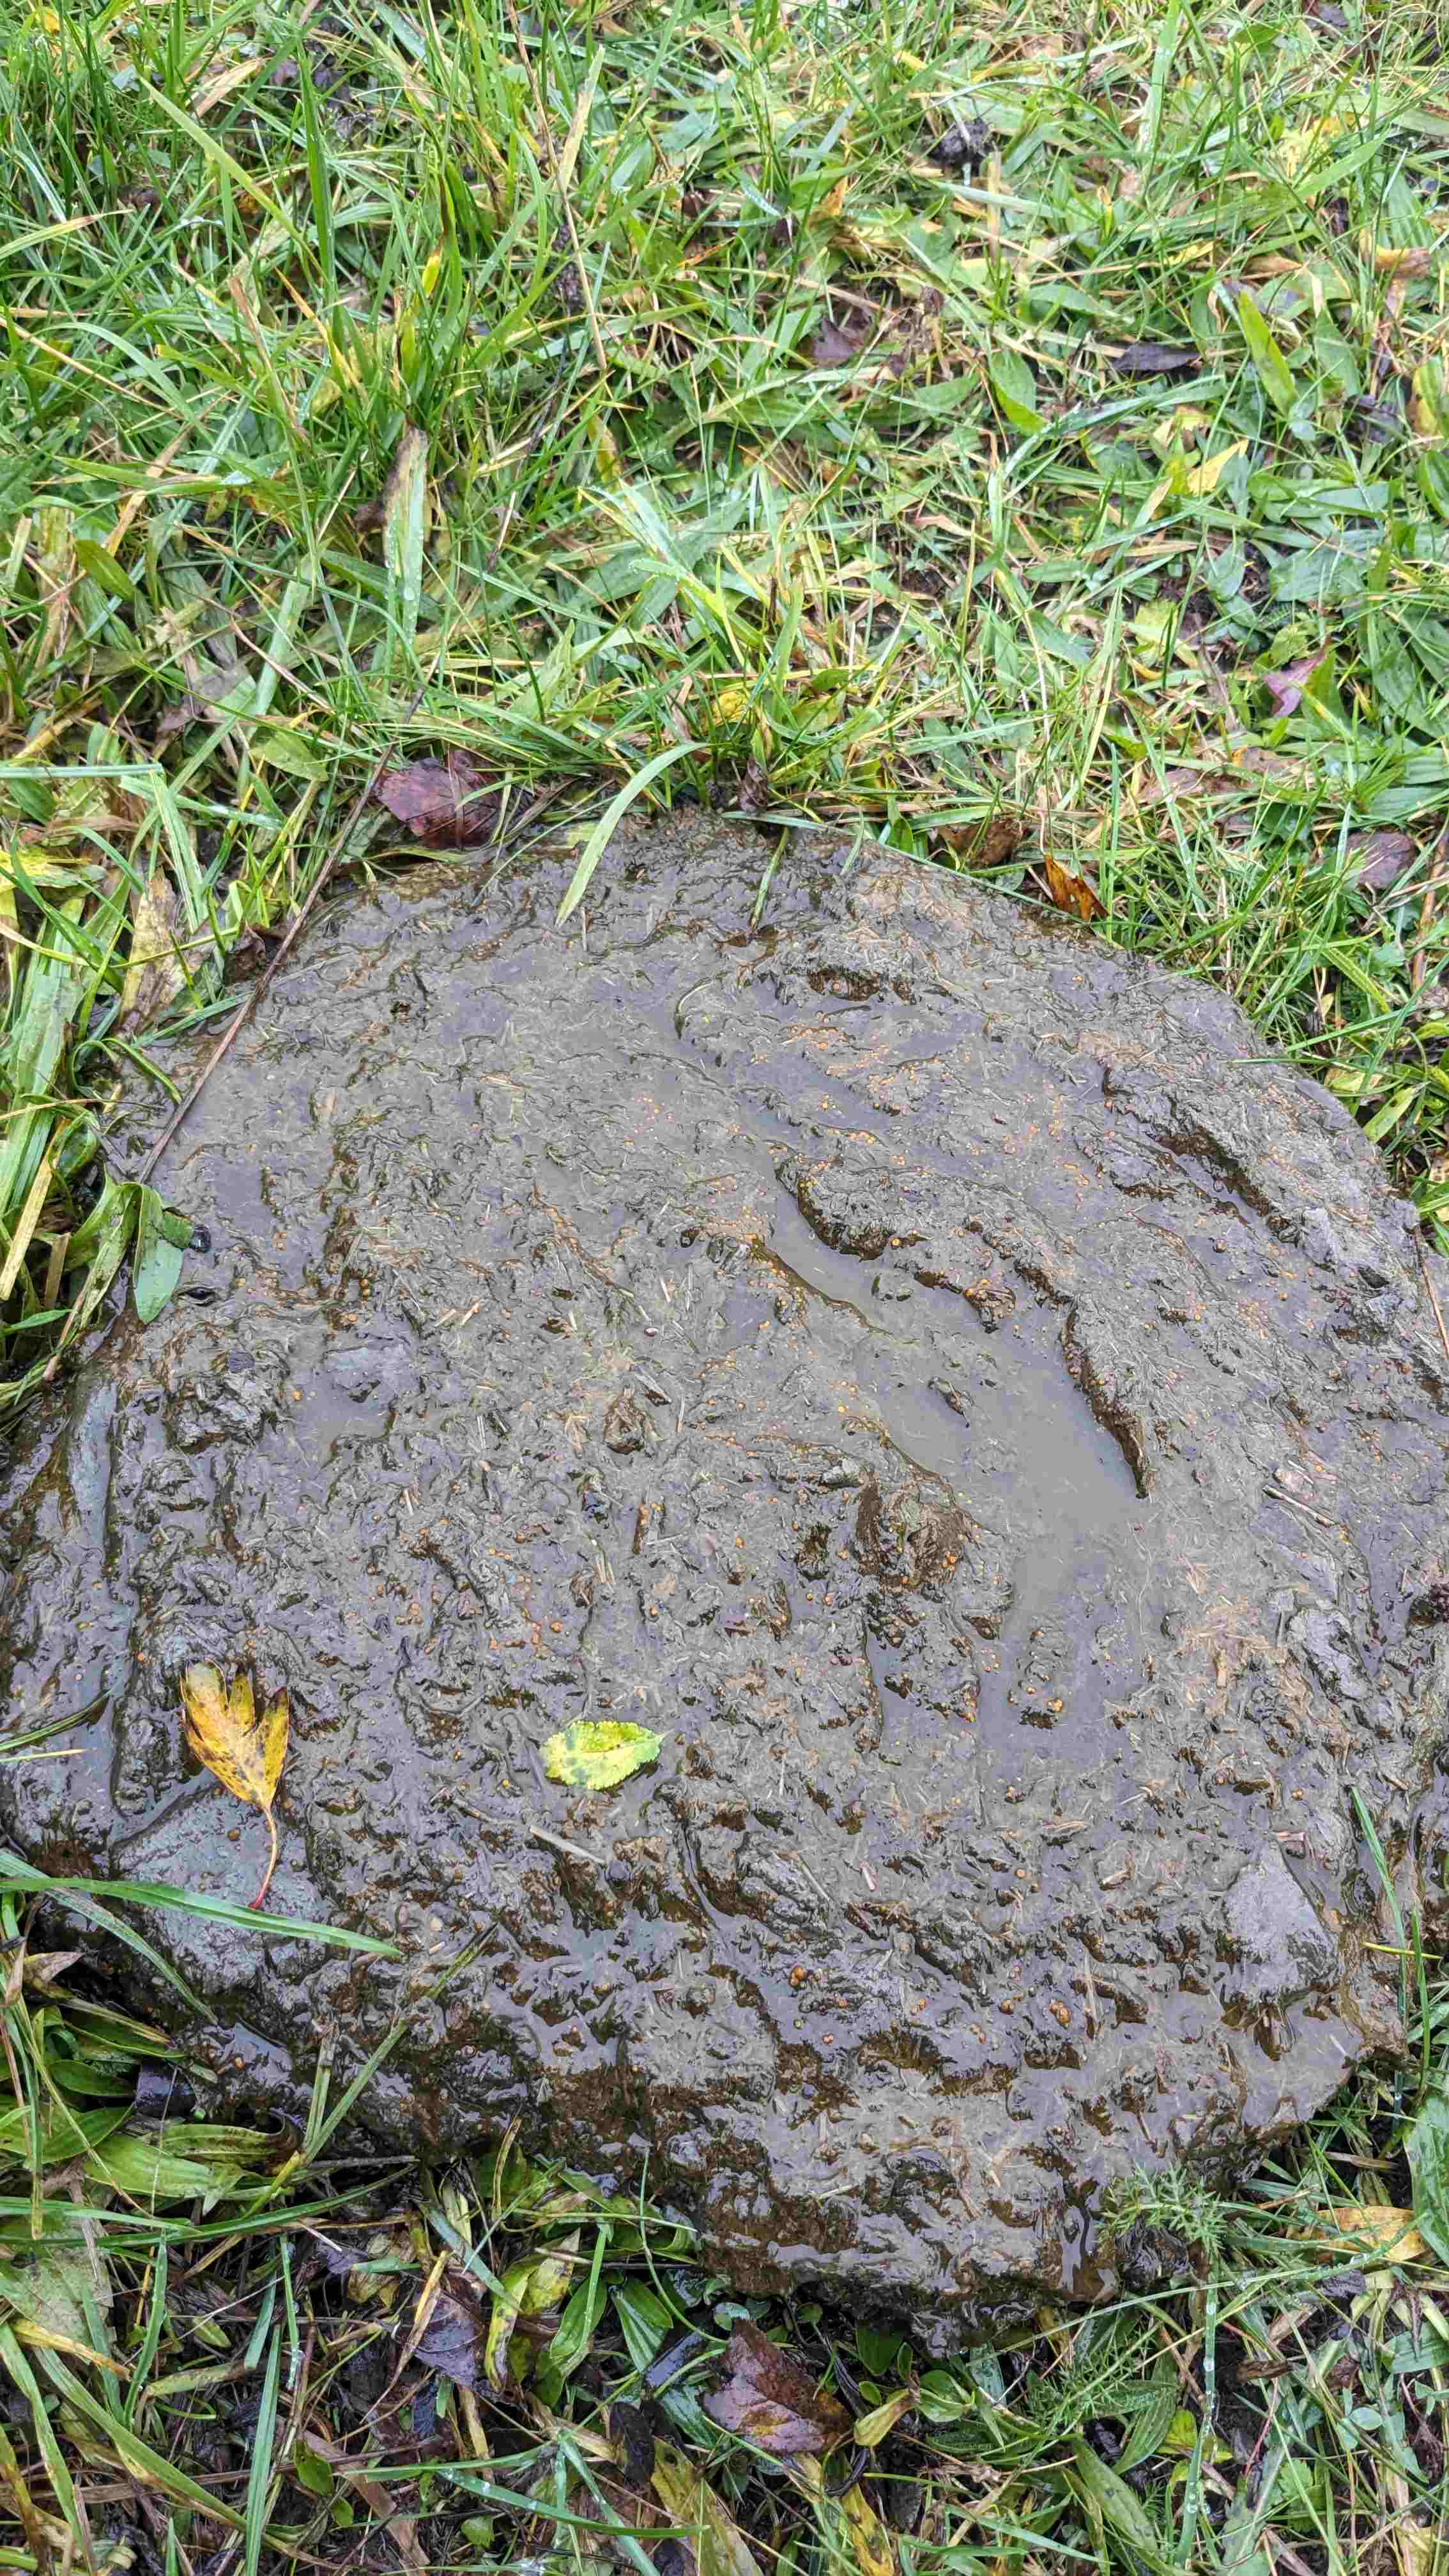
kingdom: Fungi
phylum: Ascomycota
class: Pezizomycetes
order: Pezizales
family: Pyronemataceae
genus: Cheilymenia
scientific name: Cheilymenia
